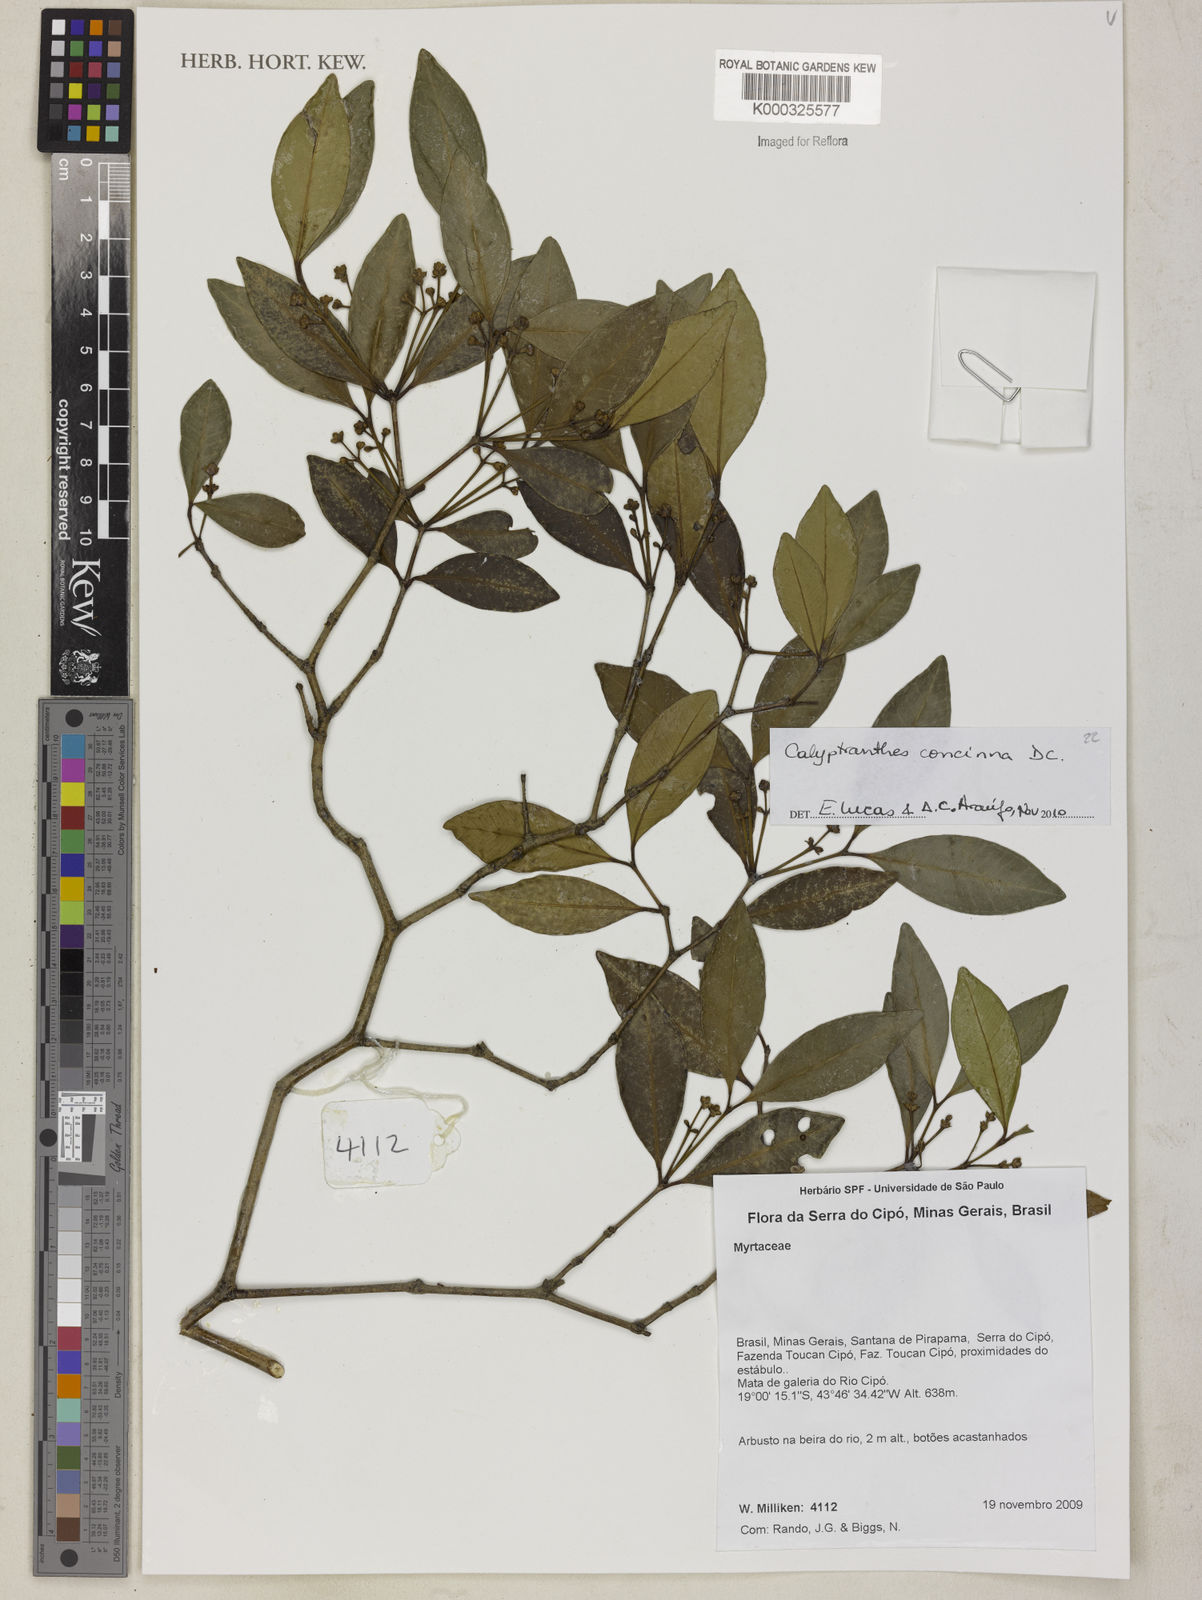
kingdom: Plantae
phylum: Tracheophyta
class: Magnoliopsida
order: Myrtales
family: Myrtaceae
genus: Myrcia
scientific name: Myrcia cruciflora
